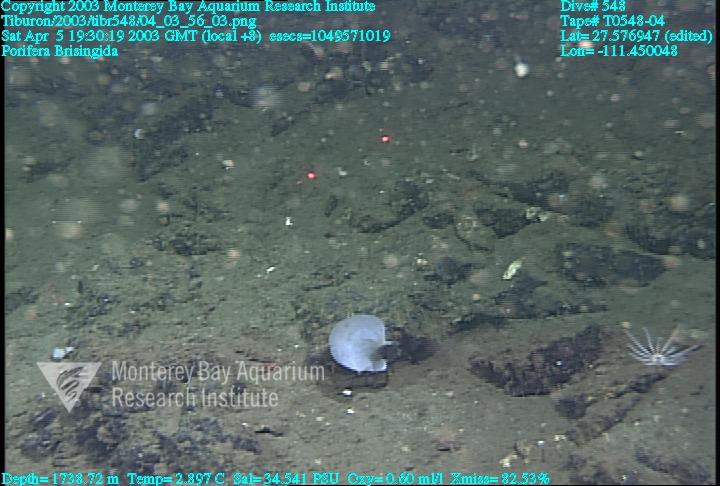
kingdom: Animalia
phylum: Porifera
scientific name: Porifera
